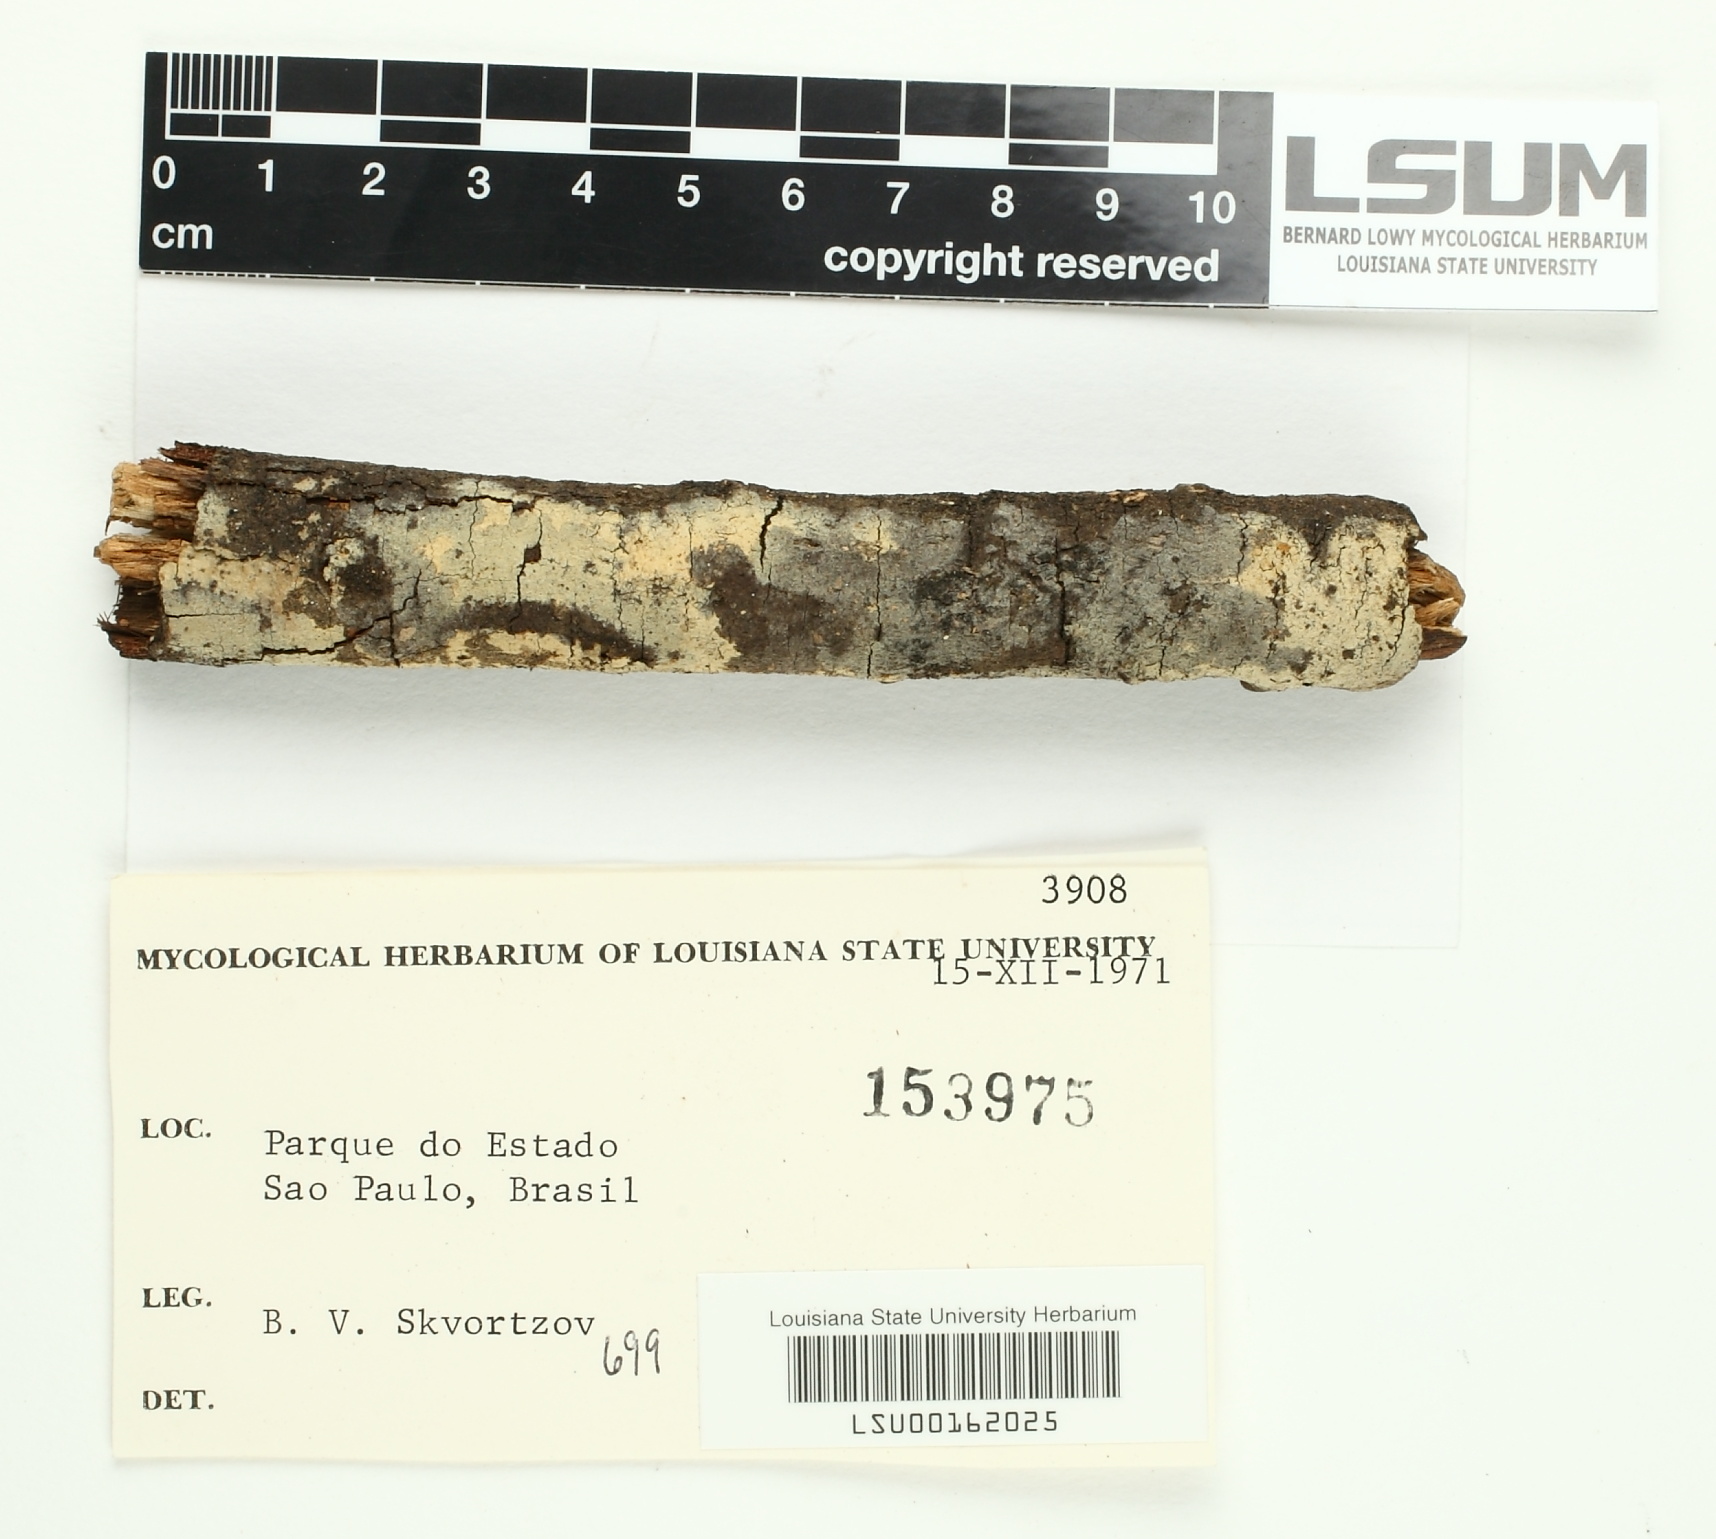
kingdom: Fungi
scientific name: Fungi
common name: Fungi
